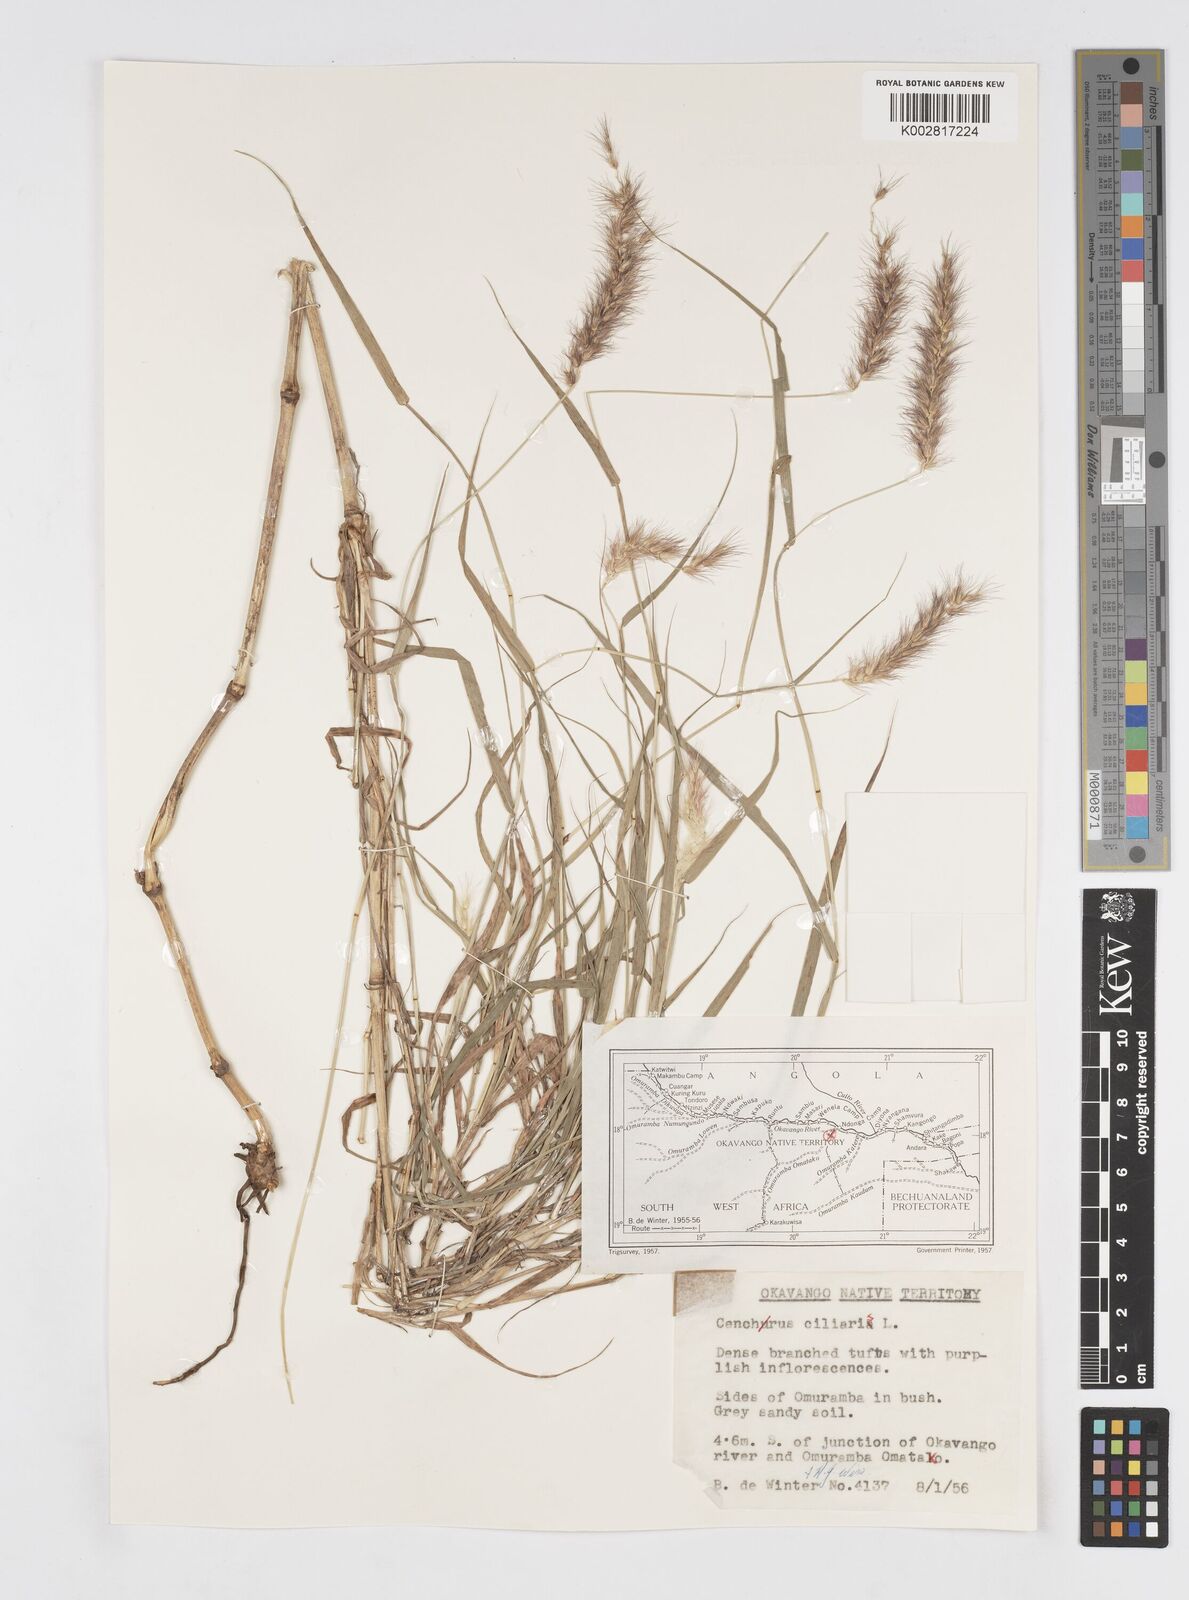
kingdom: Plantae
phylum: Tracheophyta
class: Liliopsida
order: Poales
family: Poaceae
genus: Cenchrus
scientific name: Cenchrus ciliaris
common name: Buffelgrass
